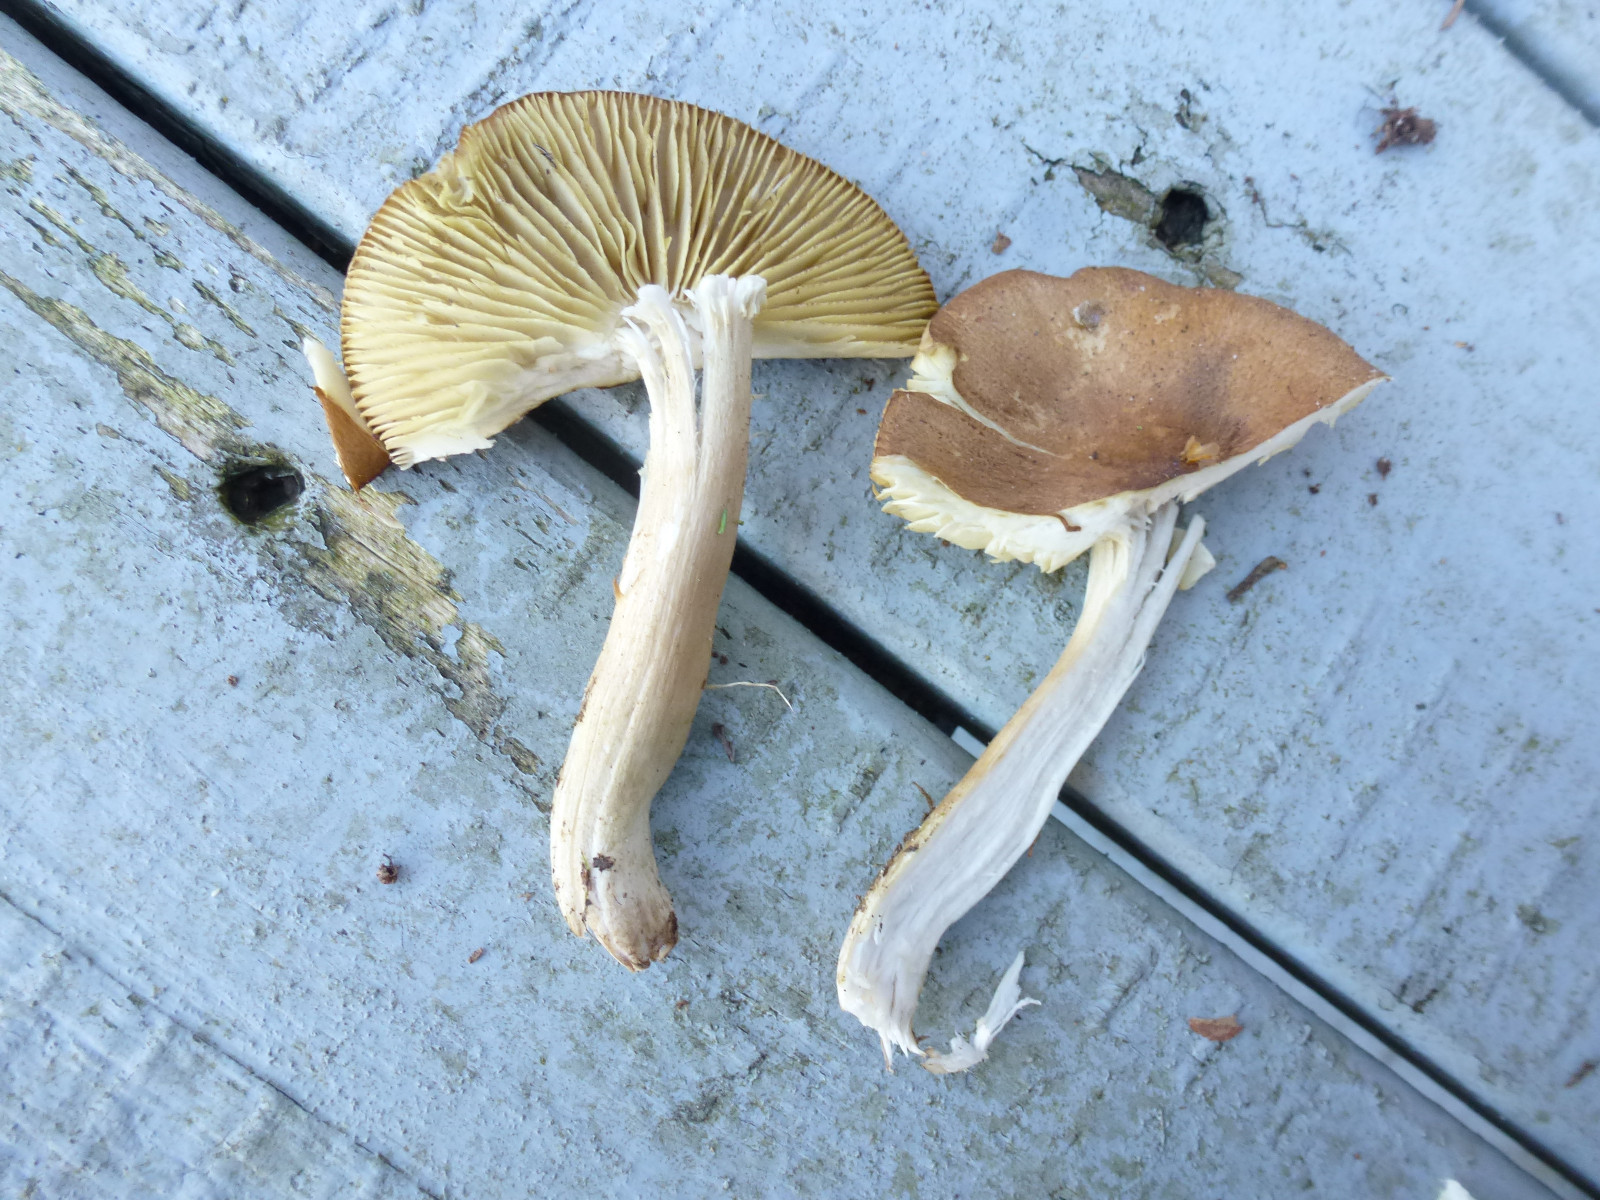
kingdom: Fungi
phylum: Basidiomycota
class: Agaricomycetes
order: Agaricales
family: Tricholomataceae
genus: Tricholoma
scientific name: Tricholoma aestuans
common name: kegle-ridderhat
